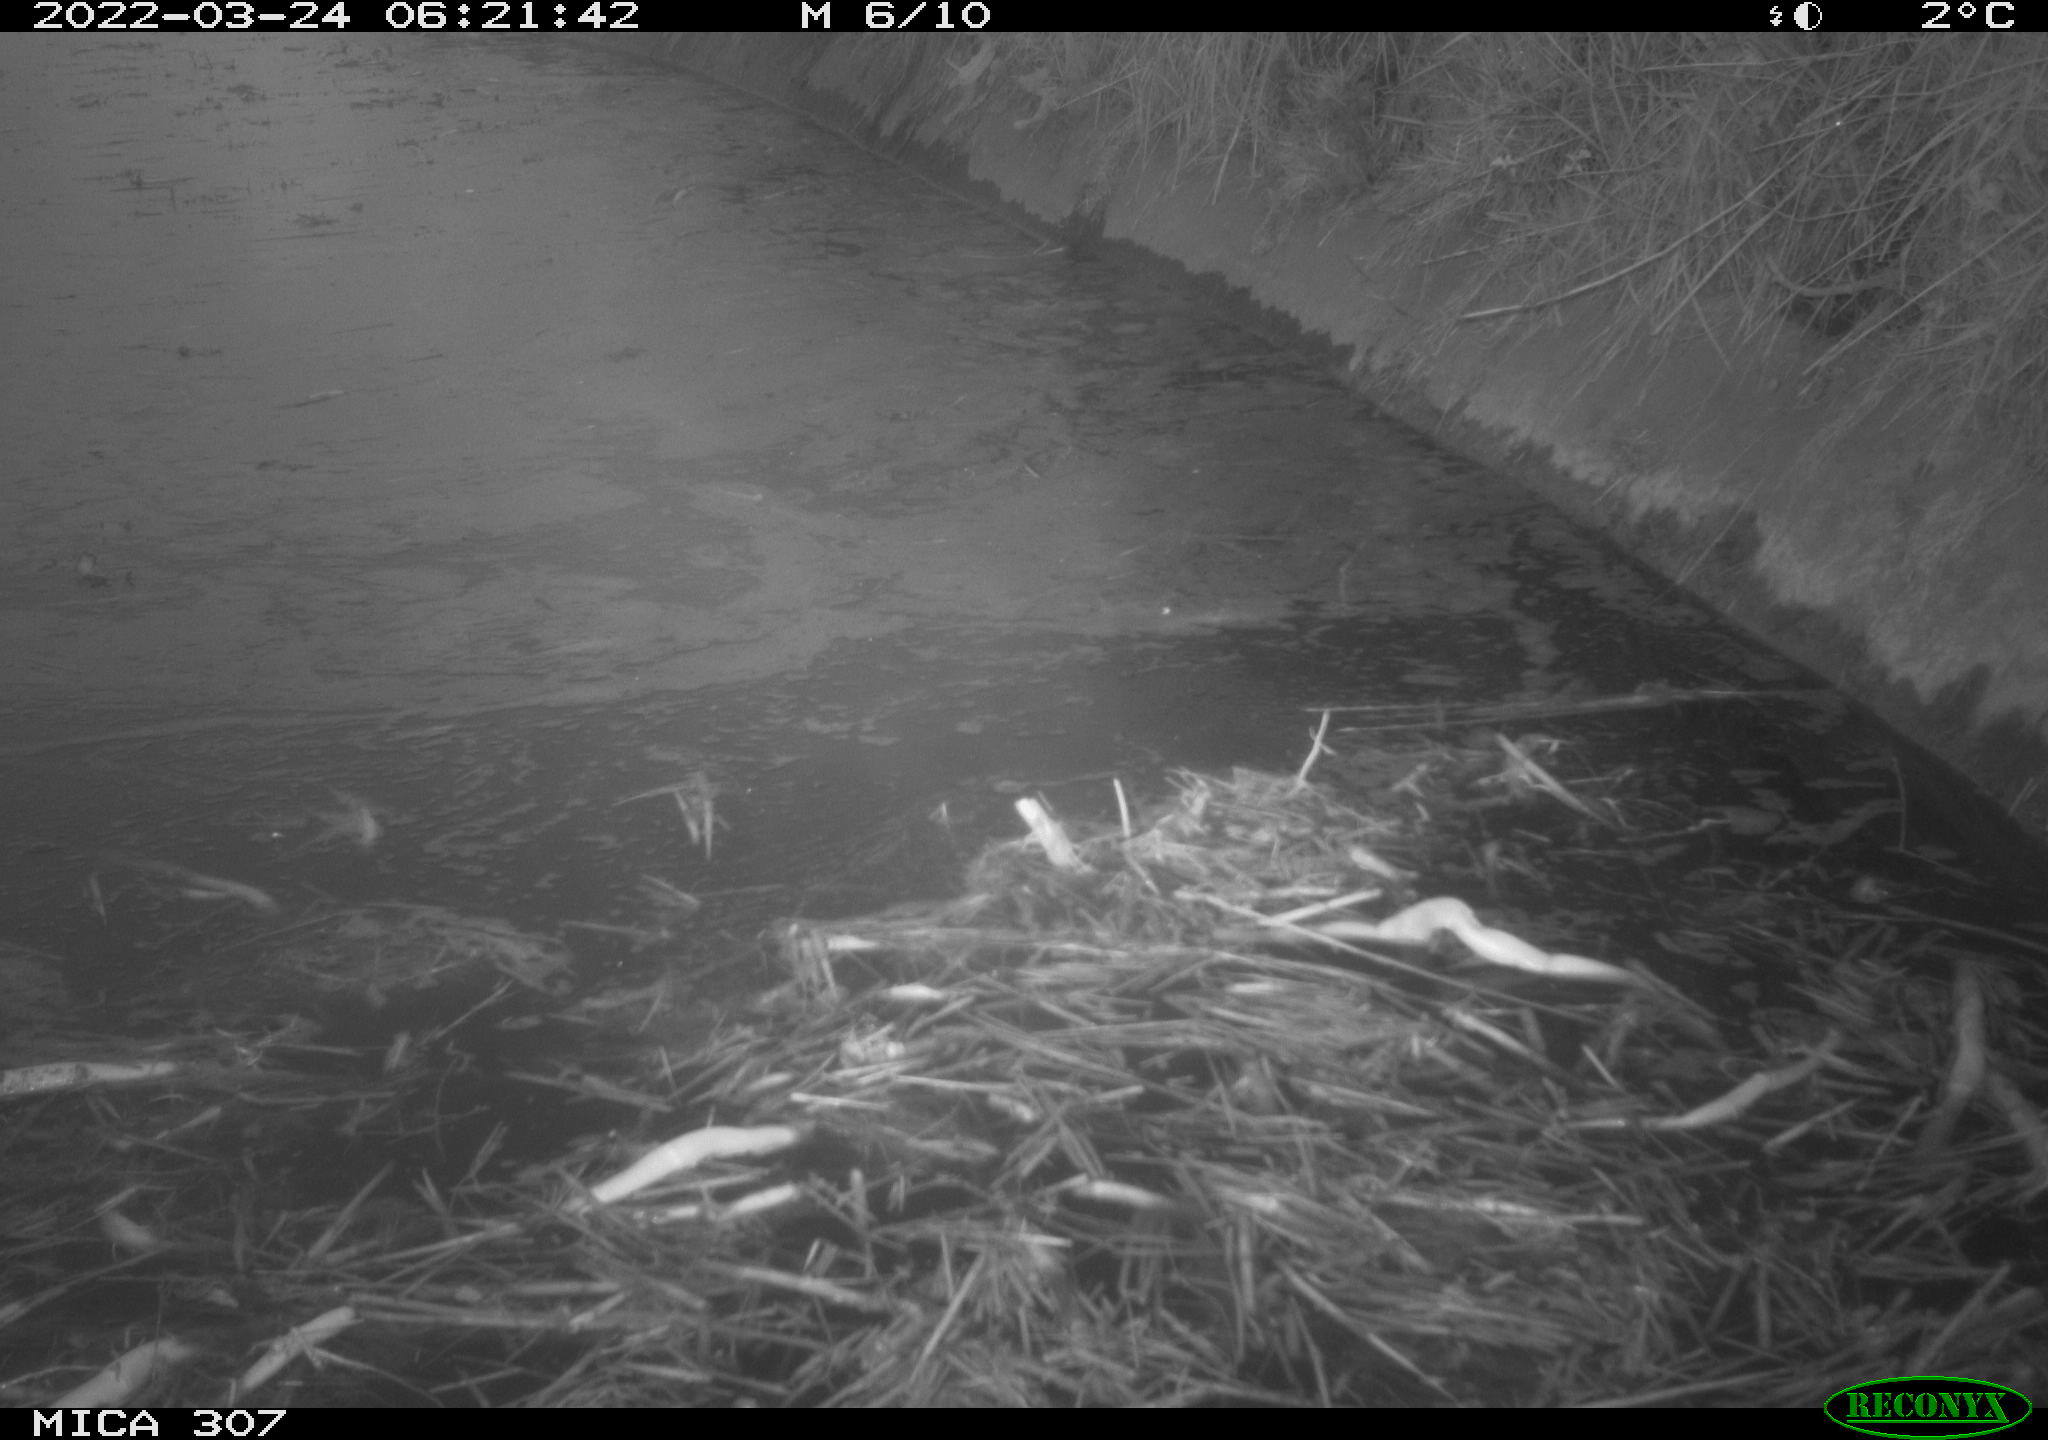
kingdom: Animalia
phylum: Chordata
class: Aves
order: Gruiformes
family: Rallidae
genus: Gallinula
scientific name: Gallinula chloropus
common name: Common moorhen
